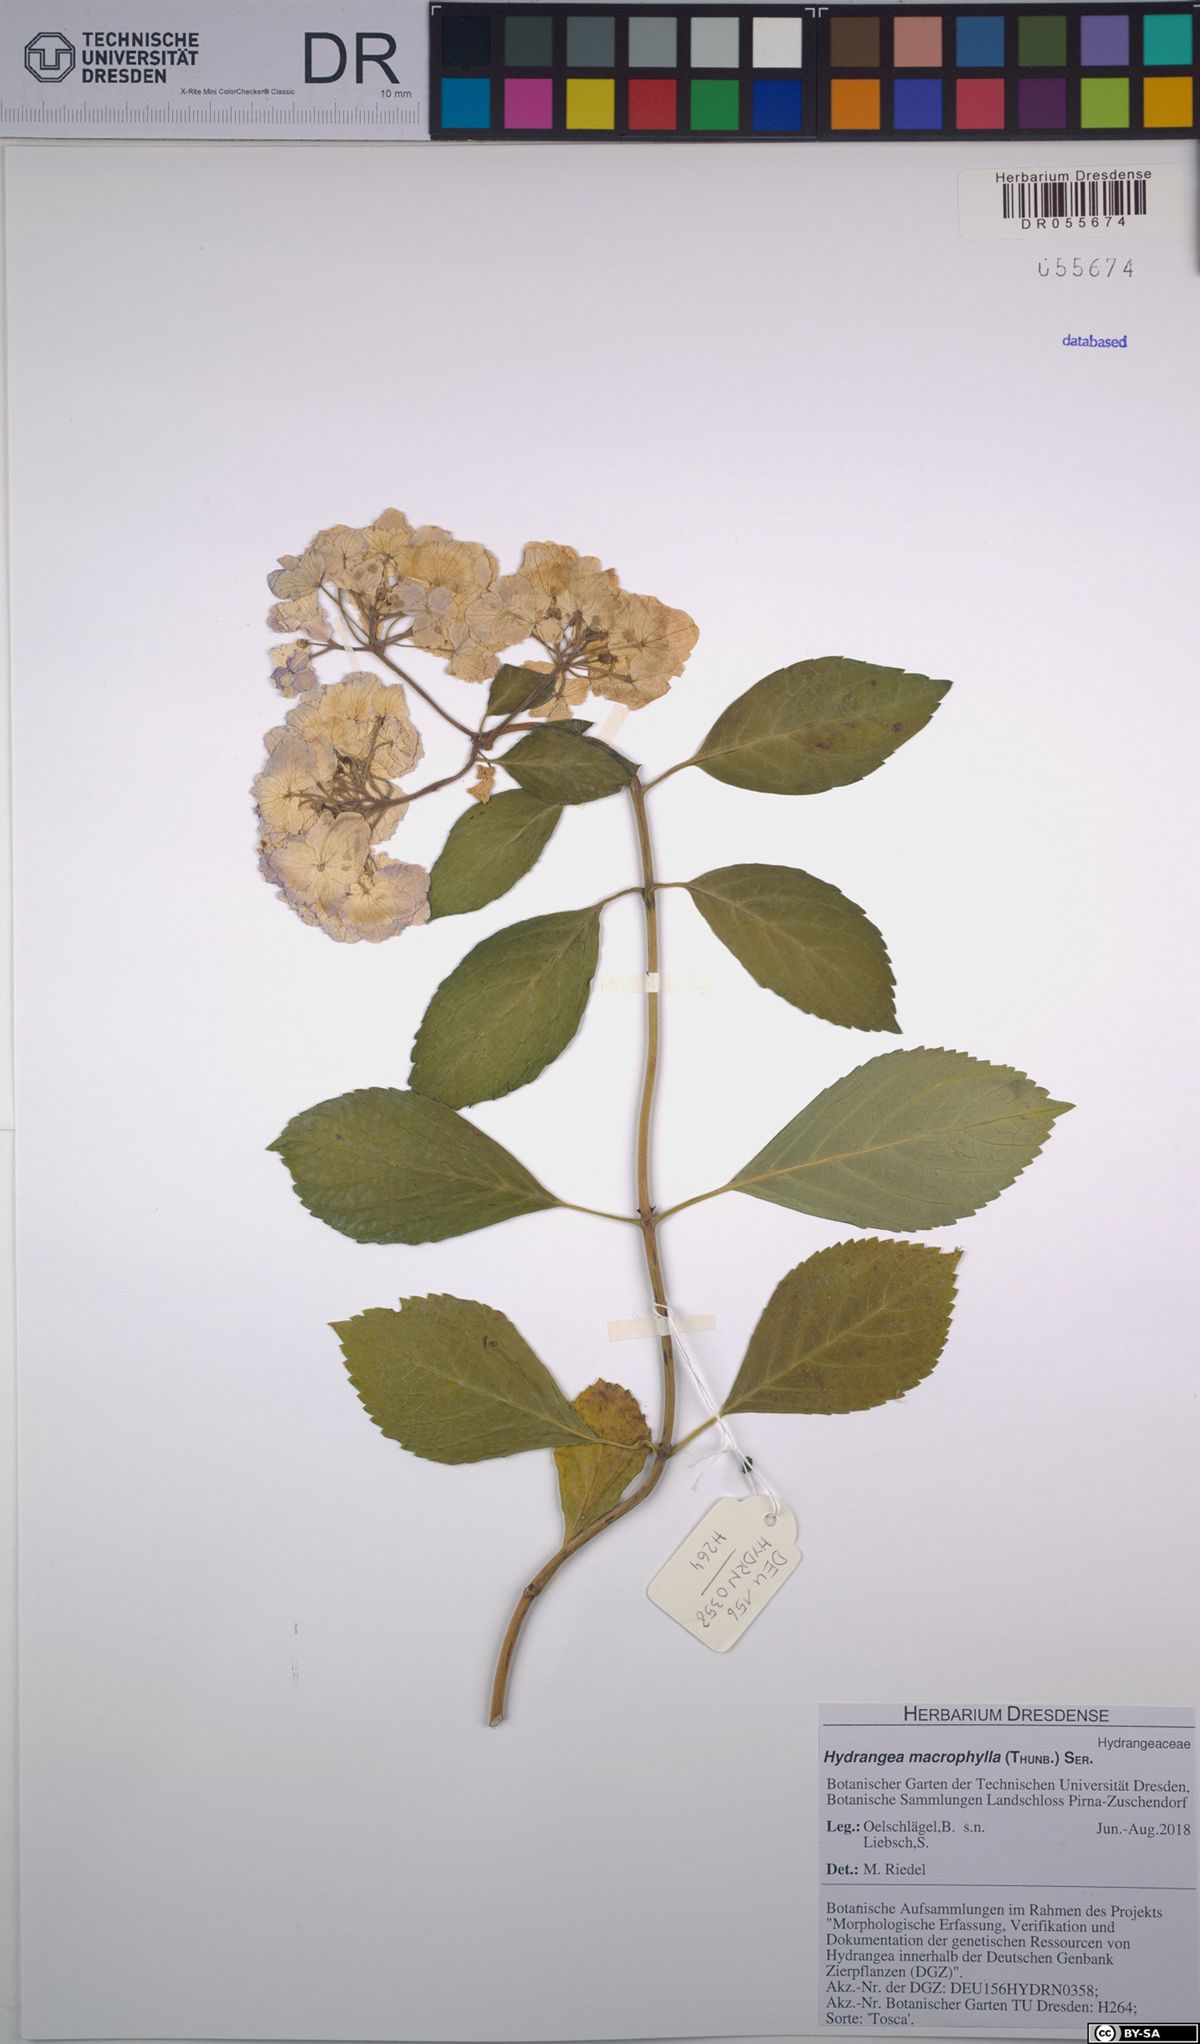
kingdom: Plantae
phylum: Tracheophyta
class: Magnoliopsida
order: Cornales
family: Hydrangeaceae
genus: Hydrangea
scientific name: Hydrangea macrophylla
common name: Hydrangea
